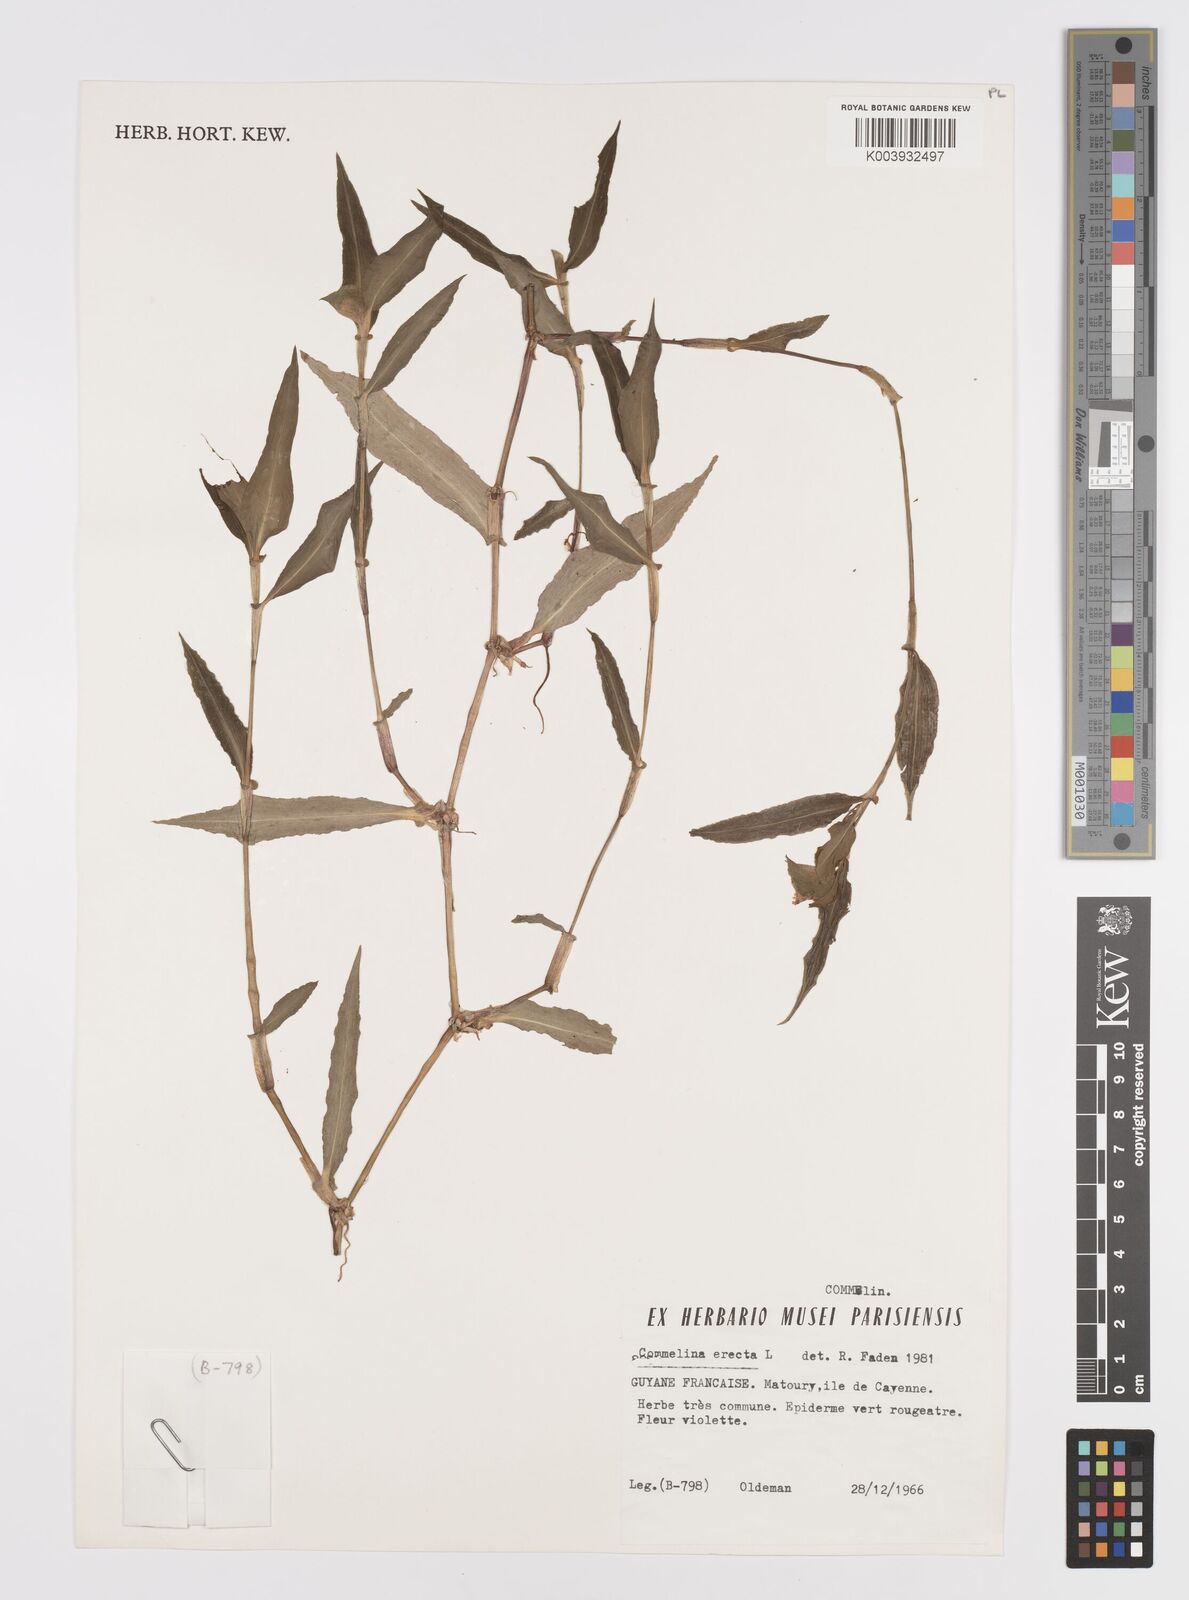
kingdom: Plantae
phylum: Tracheophyta
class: Liliopsida
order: Commelinales
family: Commelinaceae
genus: Commelina
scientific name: Commelina erecta
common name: Blousel blommetjie
